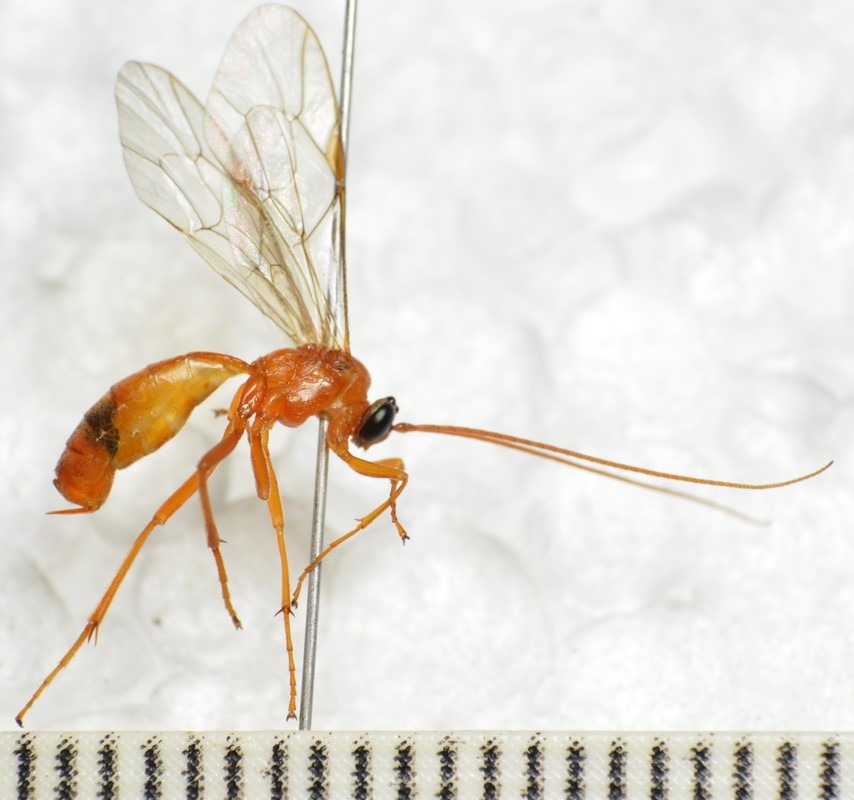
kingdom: Animalia
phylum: Arthropoda
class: Insecta
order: Hymenoptera
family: Ichneumonidae
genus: Netelia
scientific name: Netelia virgata
